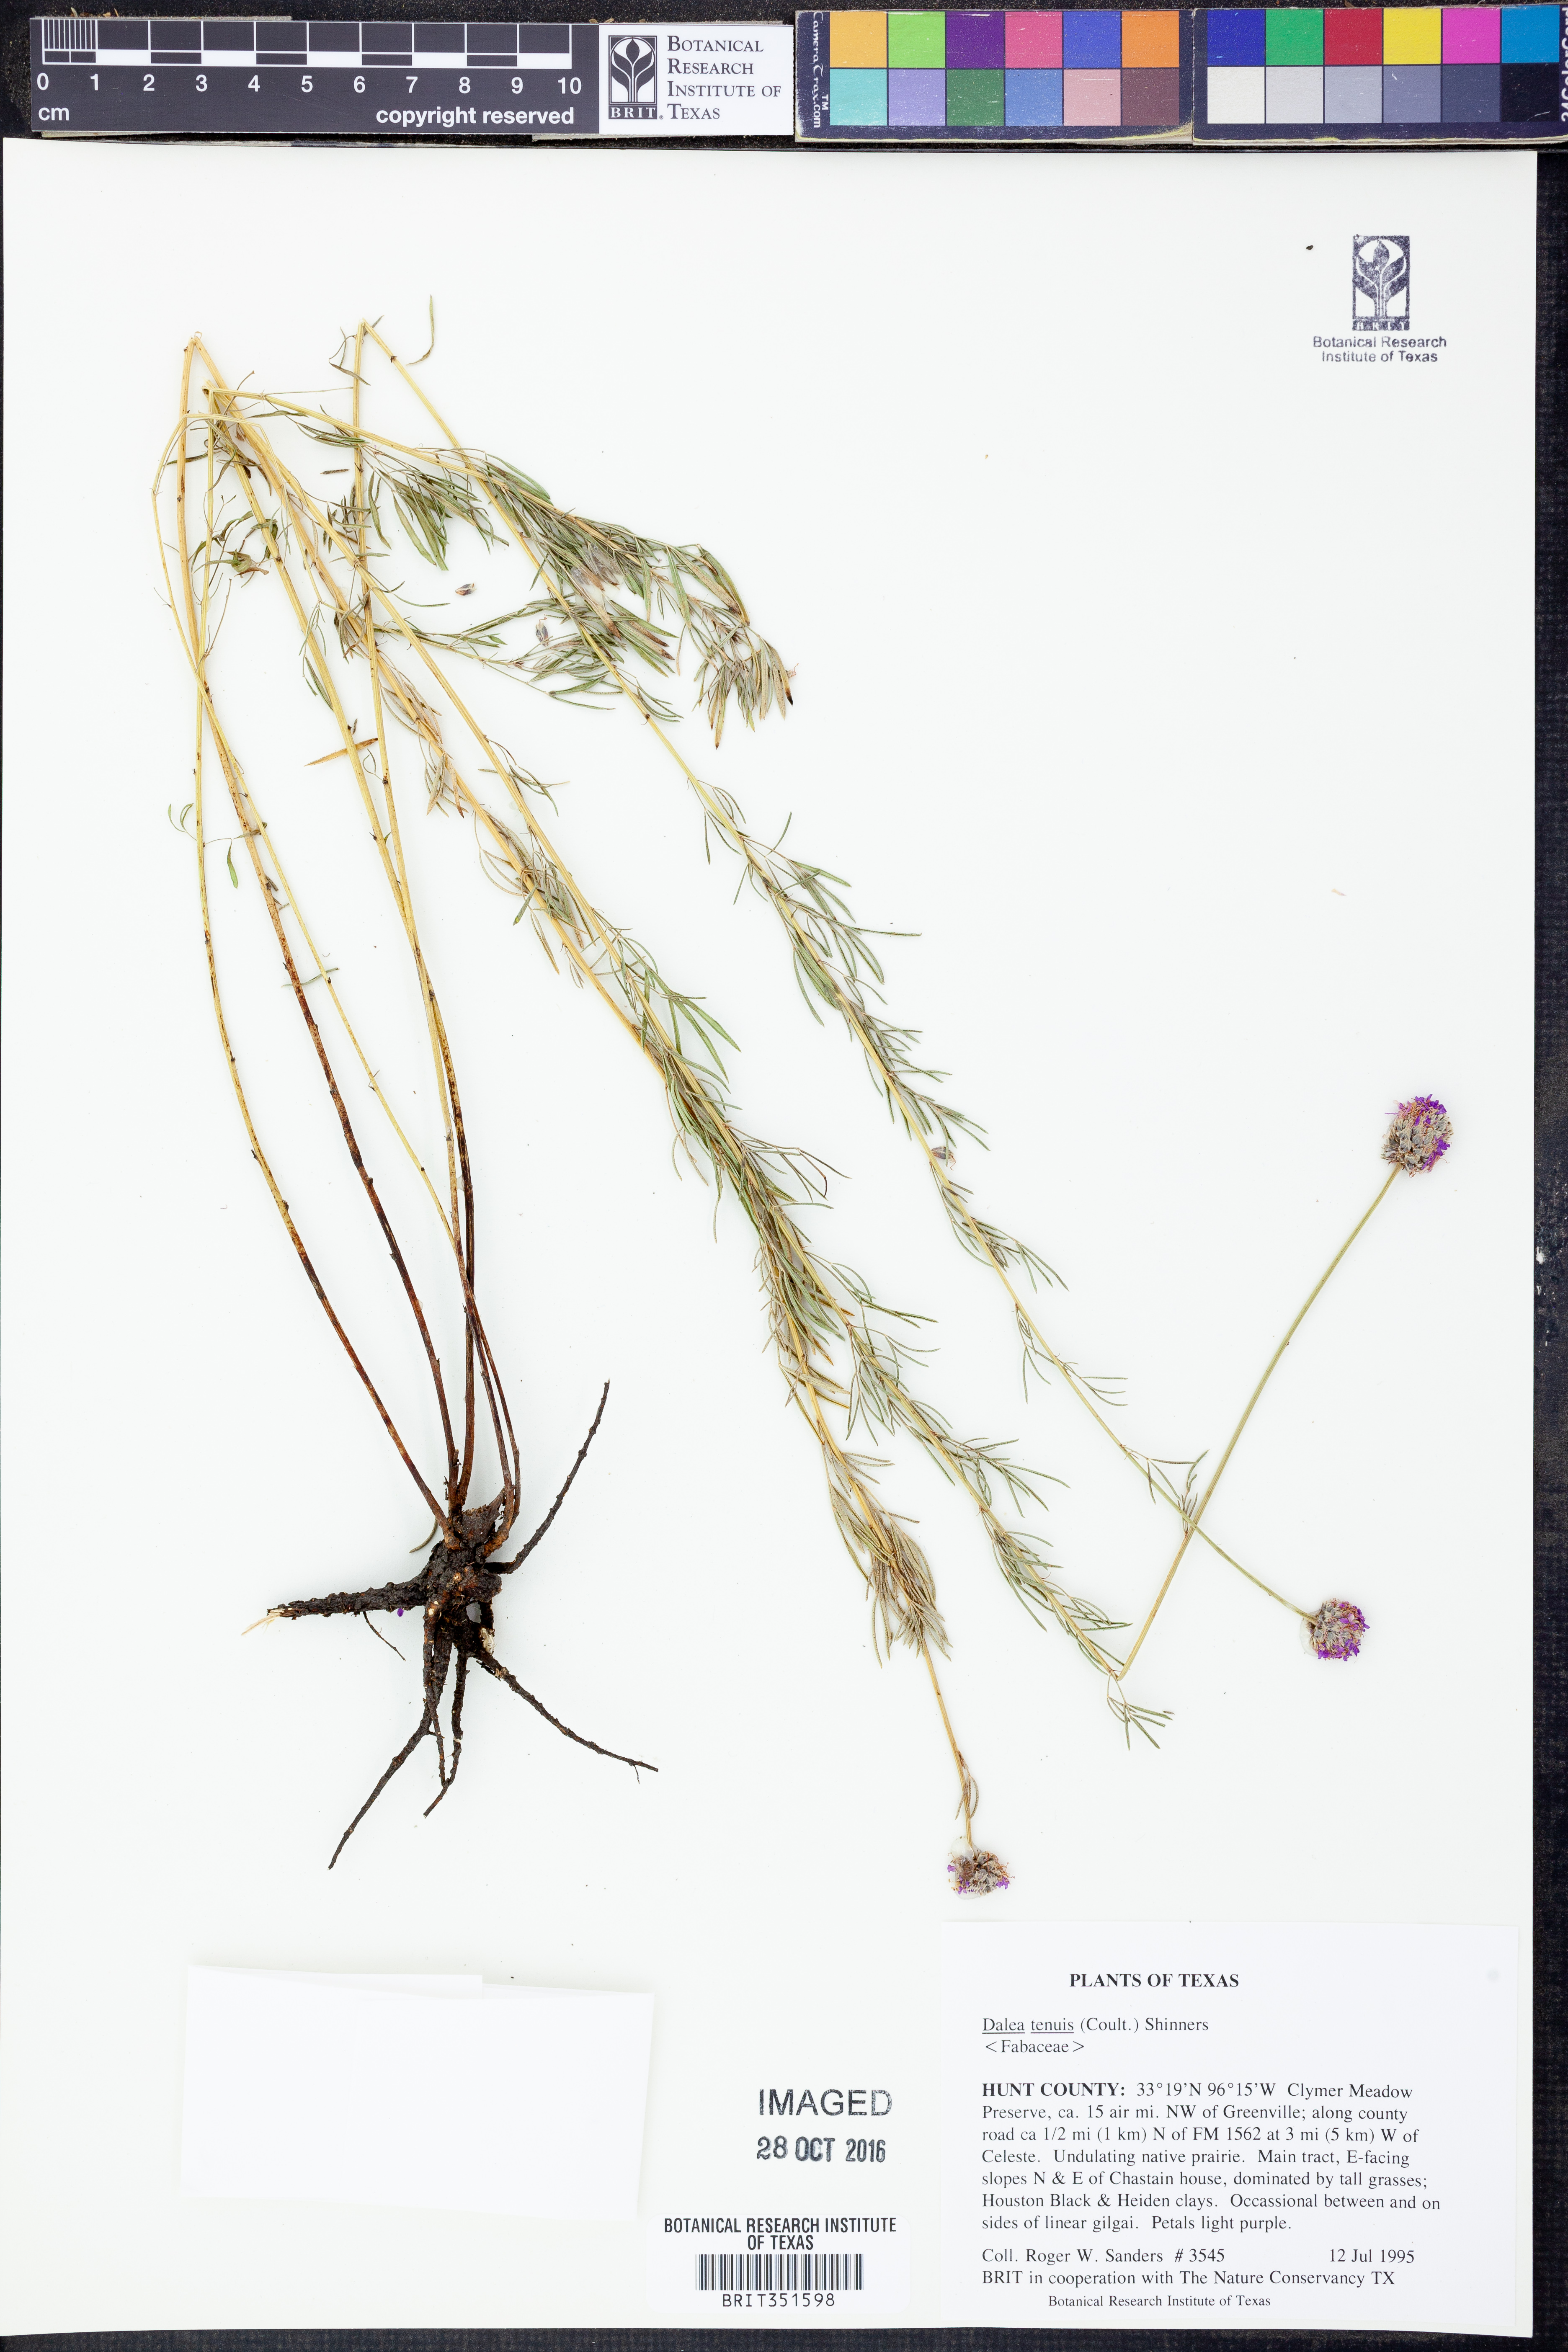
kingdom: Plantae
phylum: Tracheophyta
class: Magnoliopsida
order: Fabales
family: Fabaceae
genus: Dalea
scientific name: Dalea tenuis
